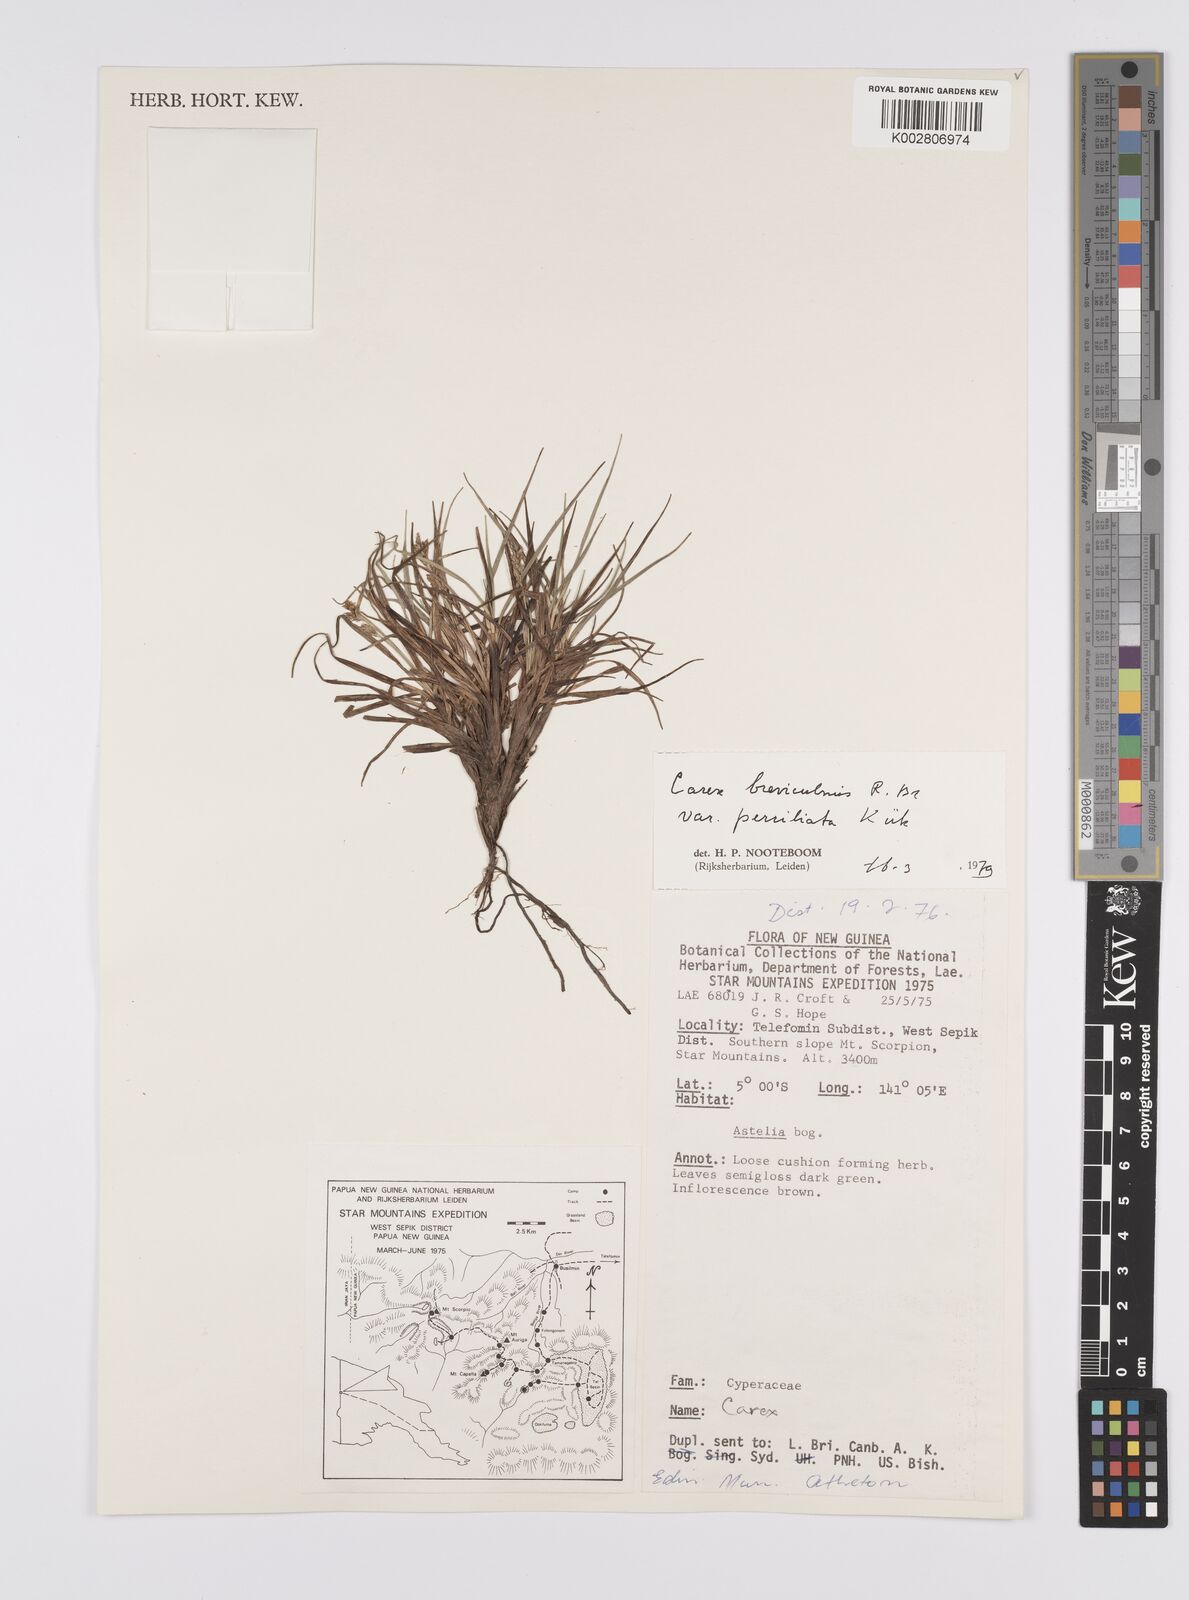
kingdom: Plantae
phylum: Tracheophyta
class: Liliopsida
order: Poales
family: Cyperaceae
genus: Carex
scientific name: Carex breviculmis
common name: Asian shortstem sedge
